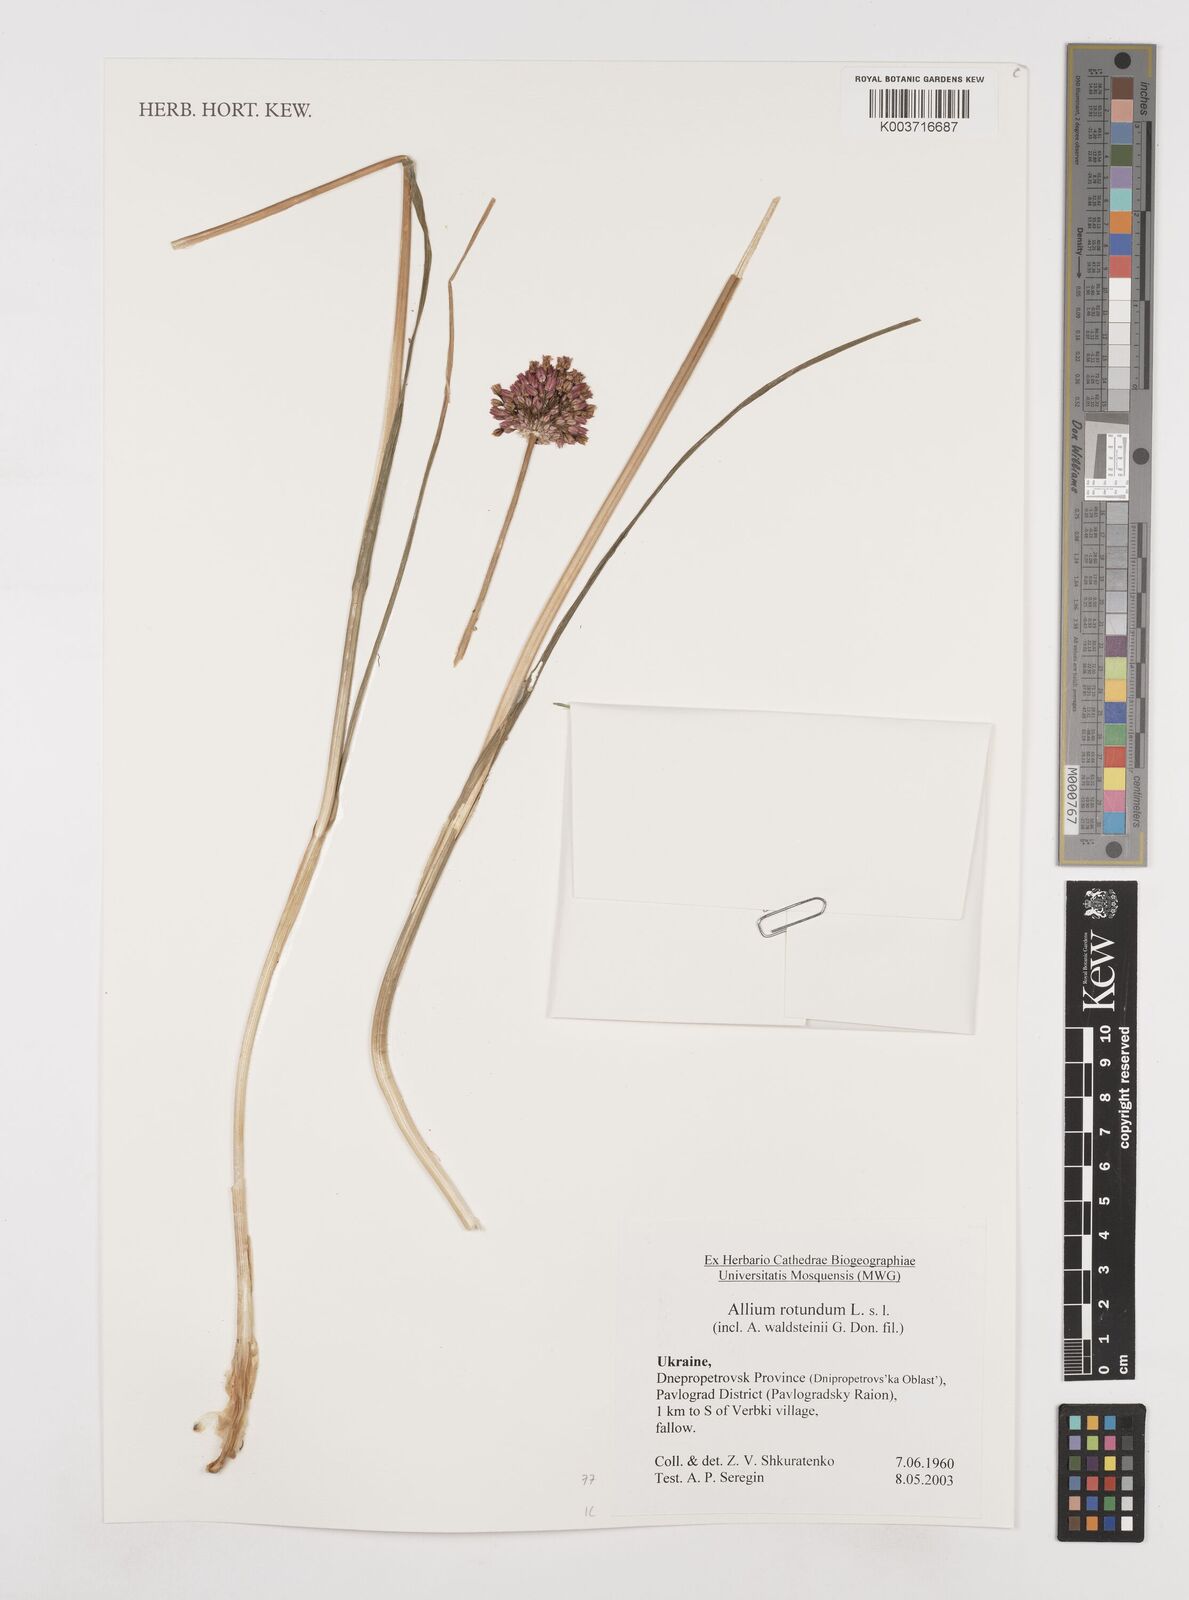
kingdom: Plantae
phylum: Tracheophyta
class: Liliopsida
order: Asparagales
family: Amaryllidaceae
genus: Allium
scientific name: Allium rotundum
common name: Sand leek
